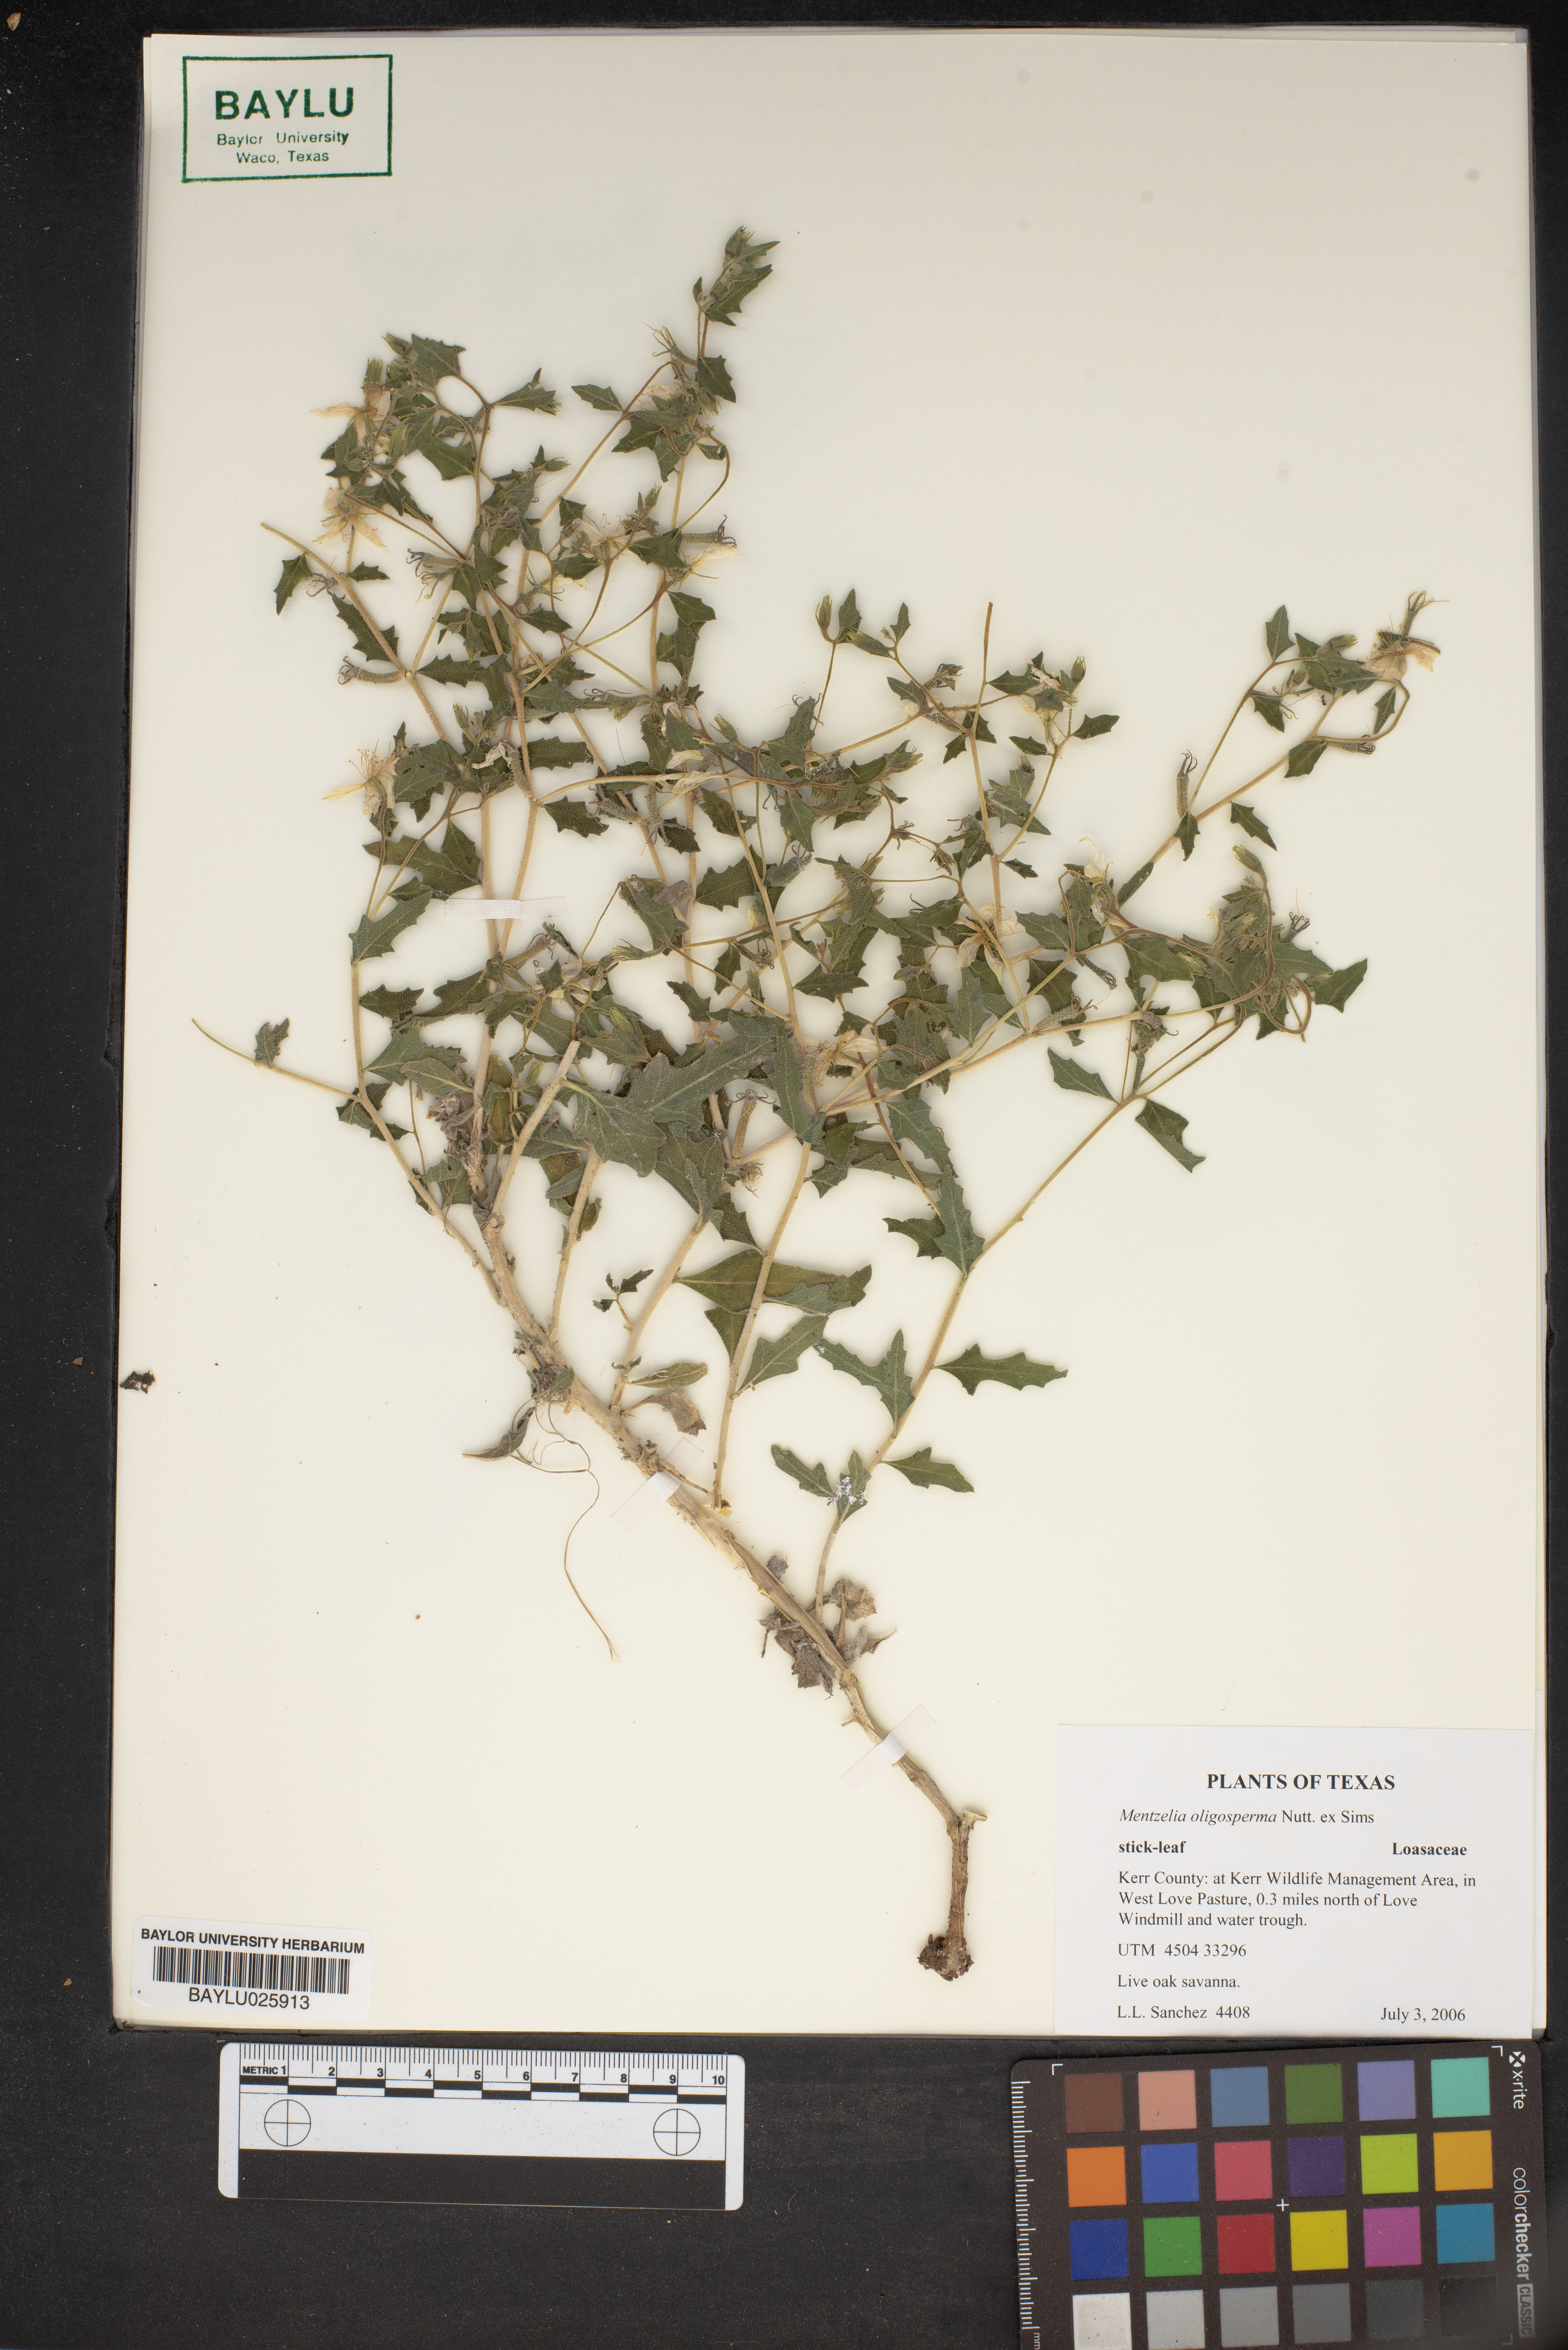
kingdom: Plantae
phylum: Tracheophyta
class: Magnoliopsida
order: Cornales
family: Loasaceae
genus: Mentzelia
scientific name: Mentzelia oligosperma
